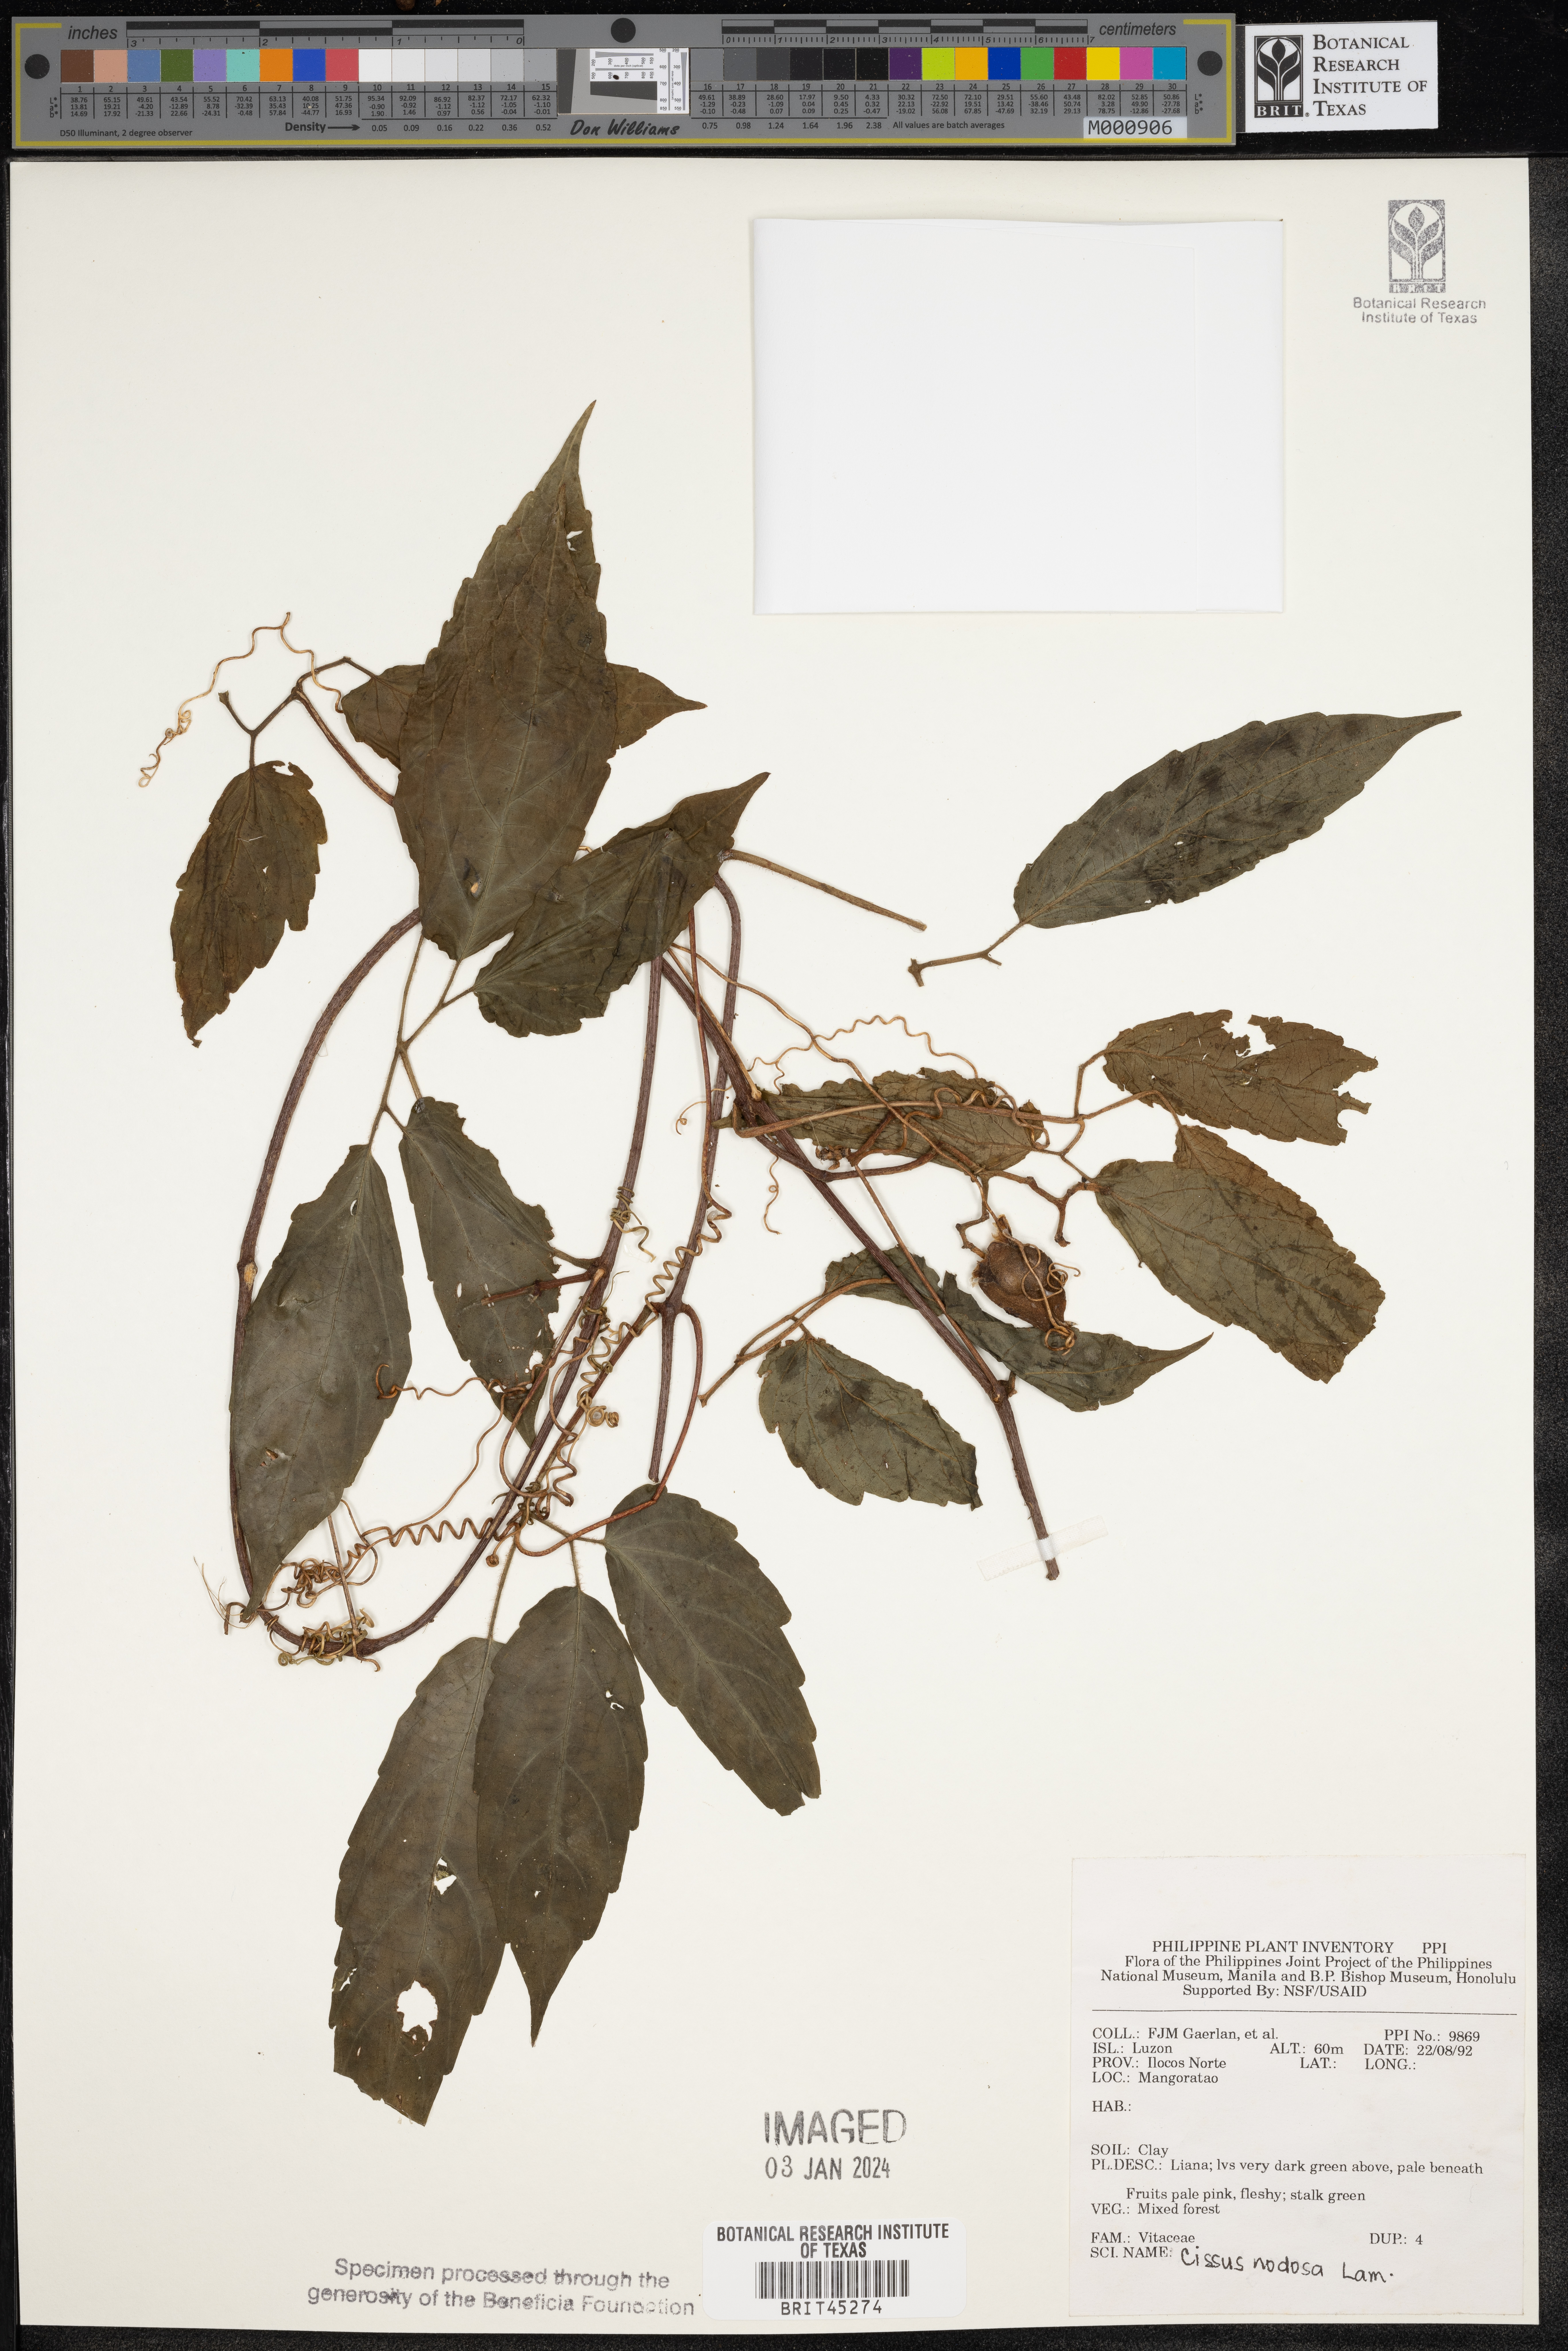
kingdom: Plantae
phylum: Tracheophyta
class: Magnoliopsida
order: Vitales
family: Vitaceae
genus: Cissus
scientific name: Cissus nodosa
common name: Grape ivy
